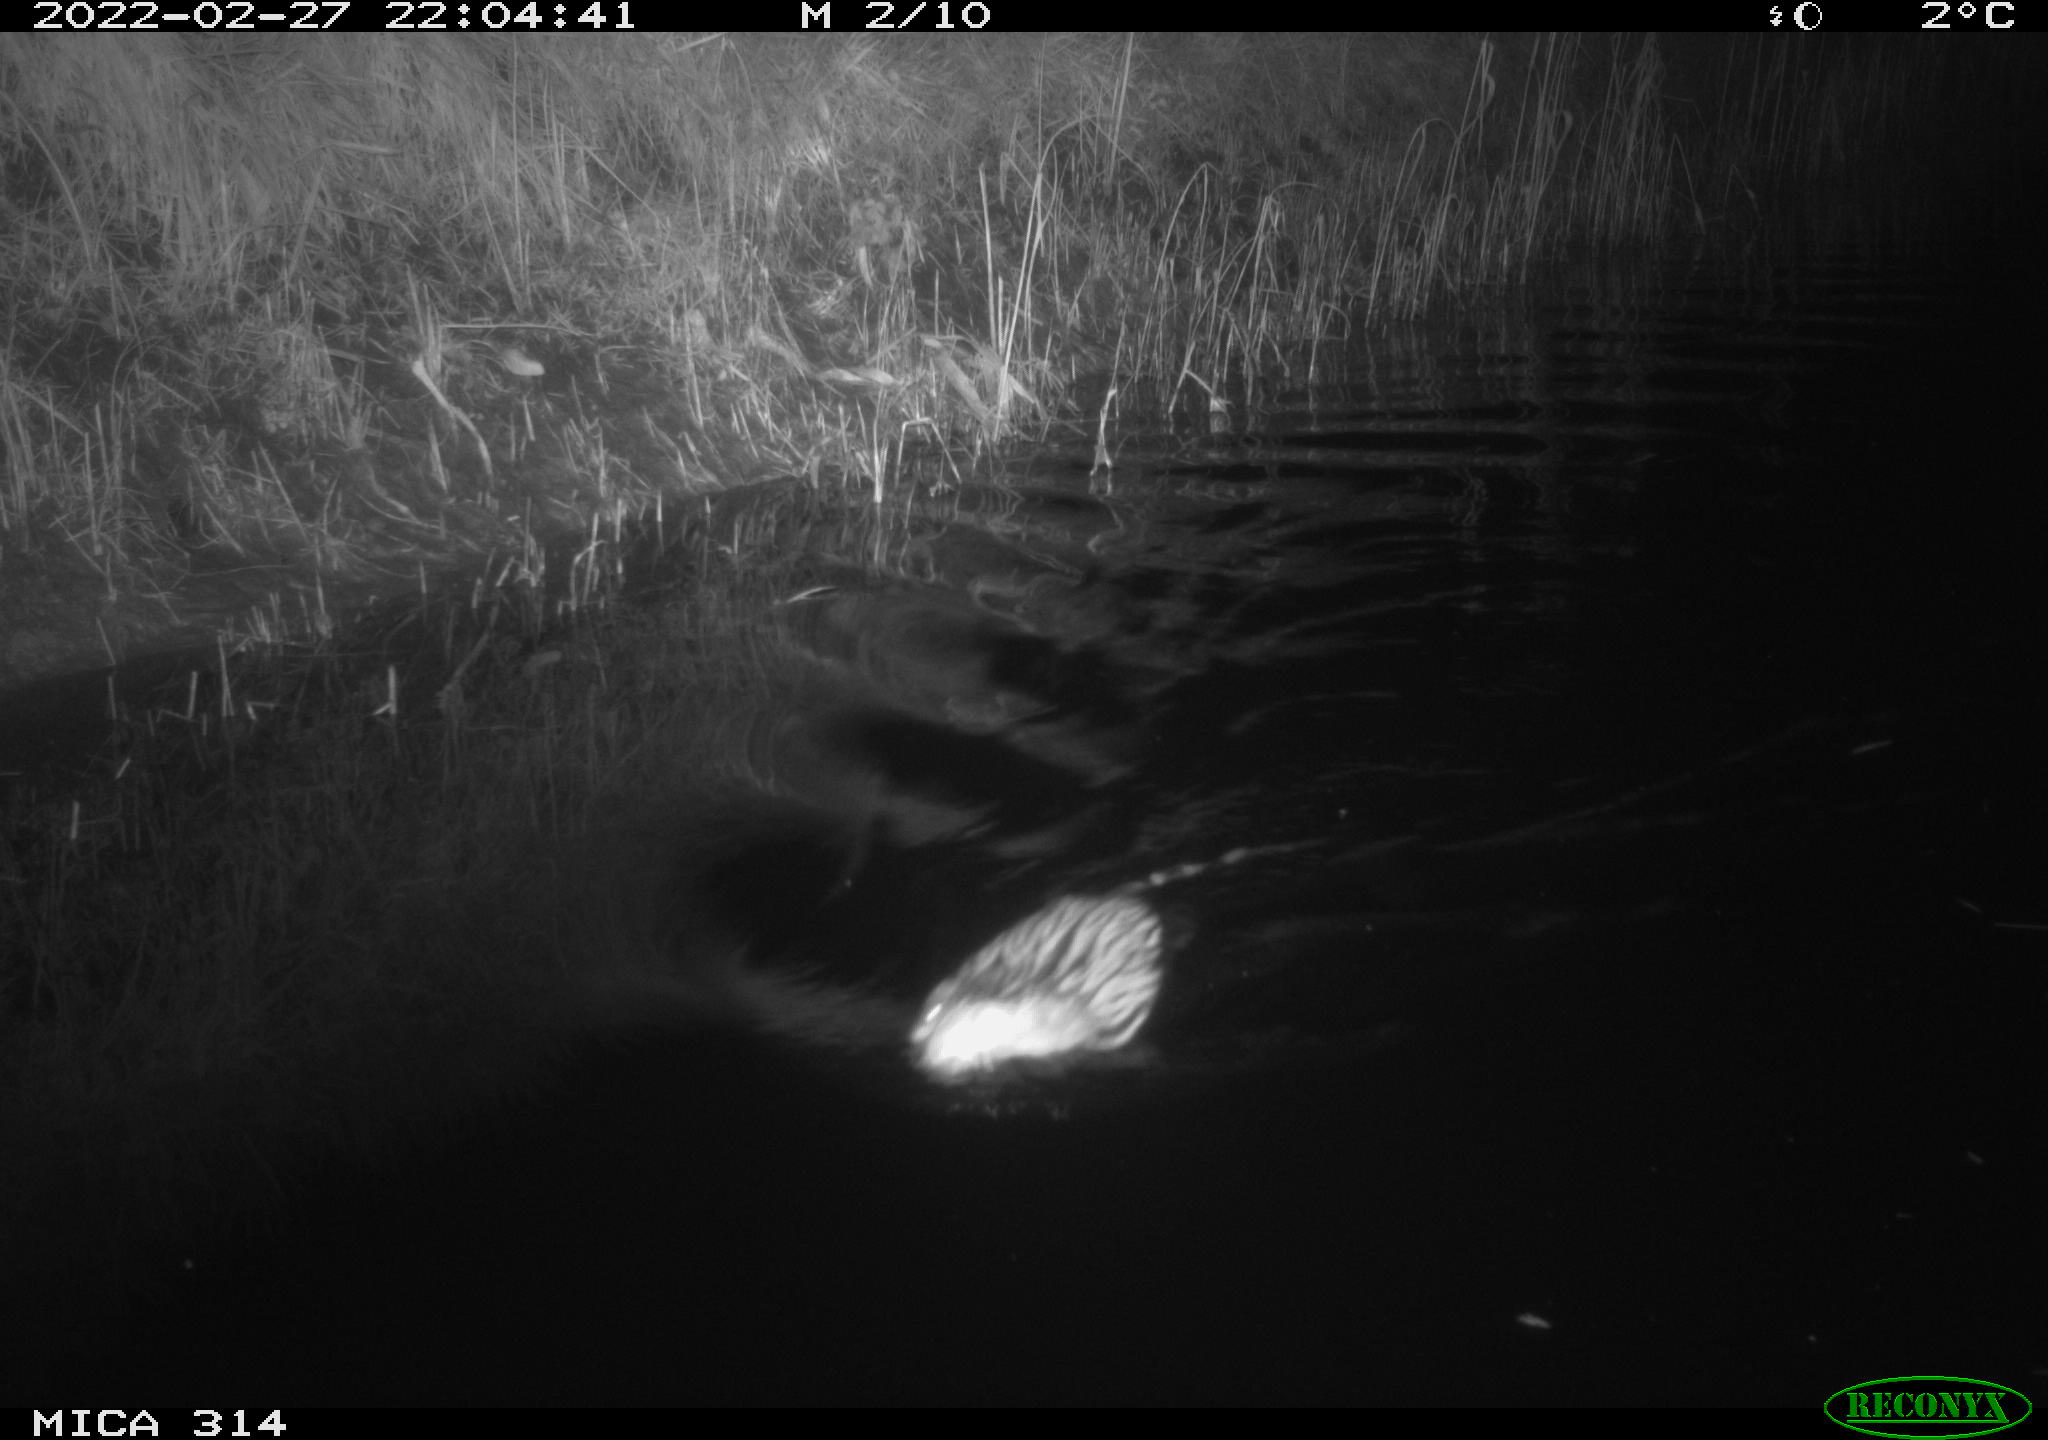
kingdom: Animalia
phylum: Chordata
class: Mammalia
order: Rodentia
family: Cricetidae
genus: Ondatra
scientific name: Ondatra zibethicus
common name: Muskrat
